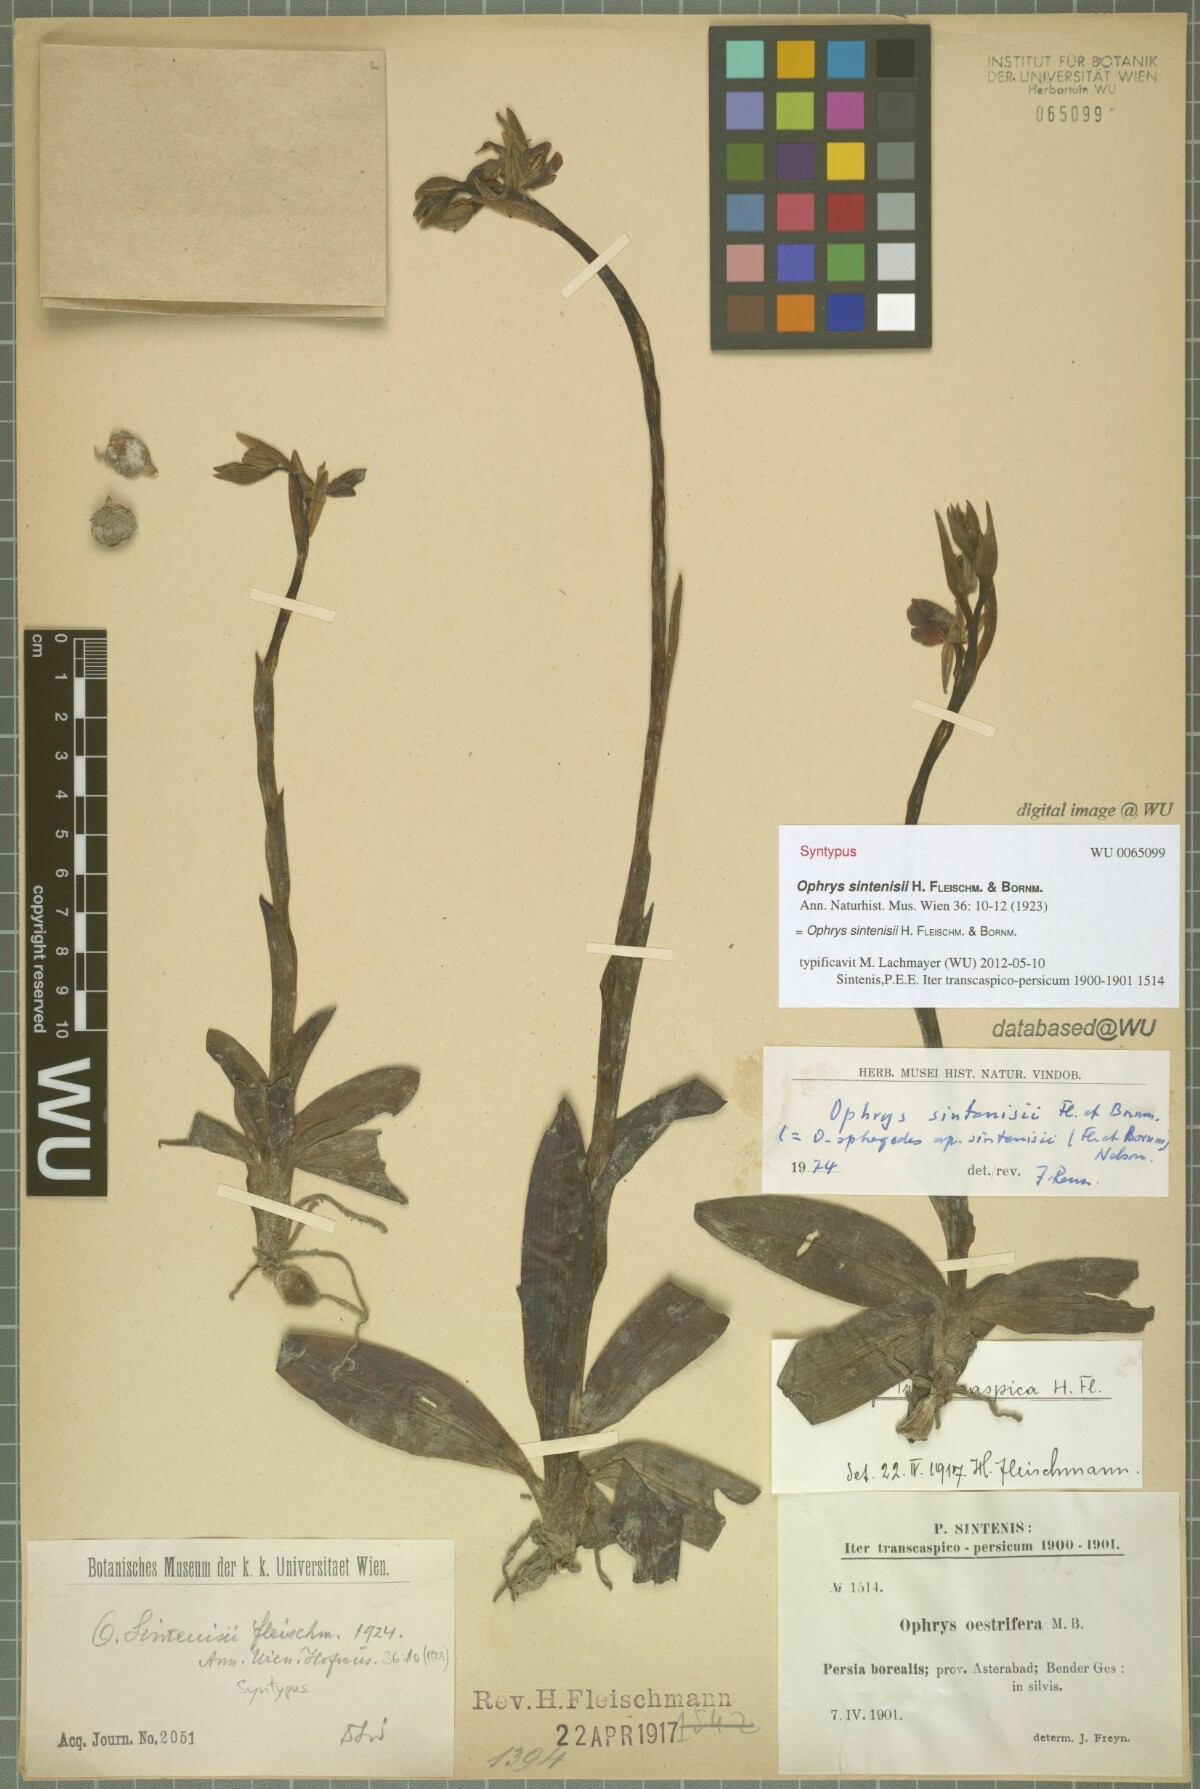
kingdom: Plantae
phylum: Tracheophyta
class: Liliopsida
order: Asparagales
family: Orchidaceae
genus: Ophrys
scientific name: Ophrys sphegodes
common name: Early spider-orchid
